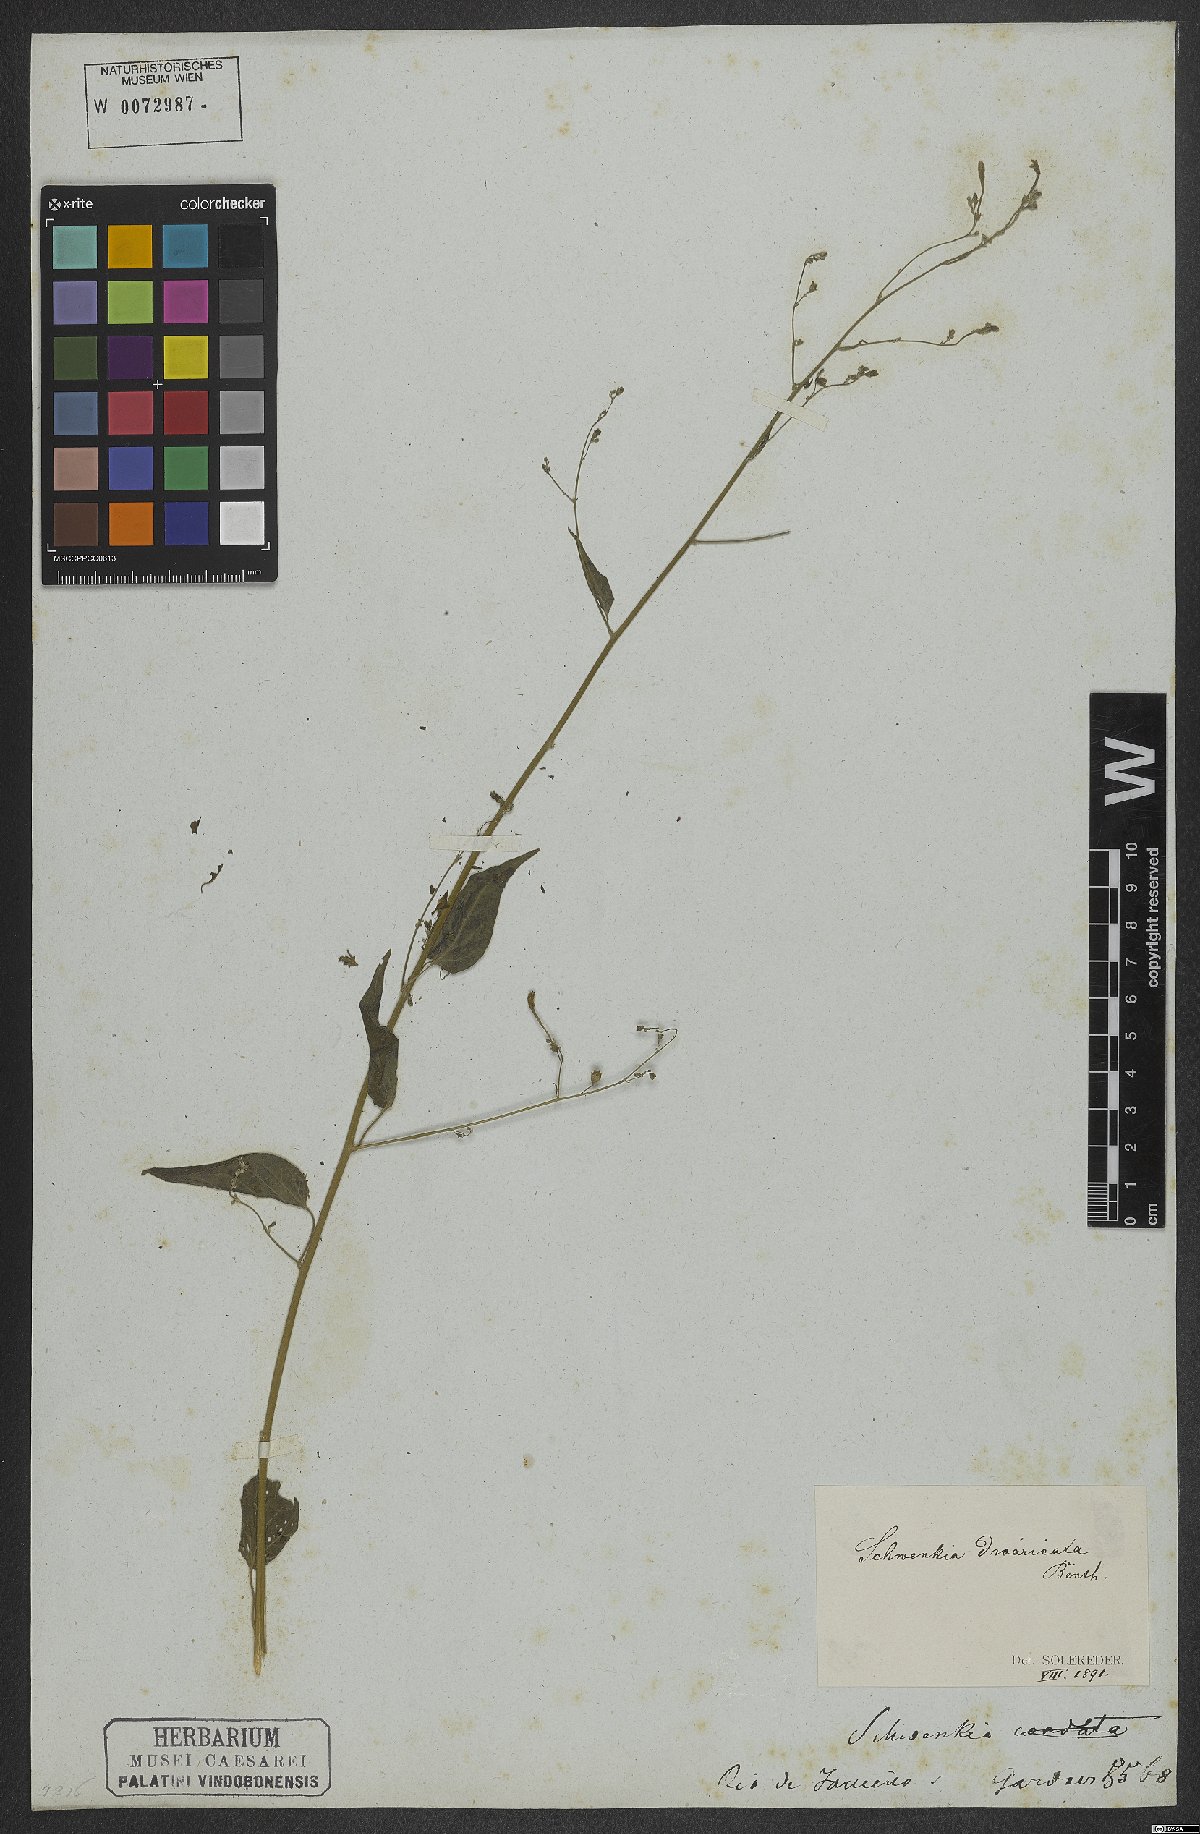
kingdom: Plantae
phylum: Tracheophyta
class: Magnoliopsida
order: Solanales
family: Solanaceae
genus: Schwenckia
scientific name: Schwenckia paniculata
